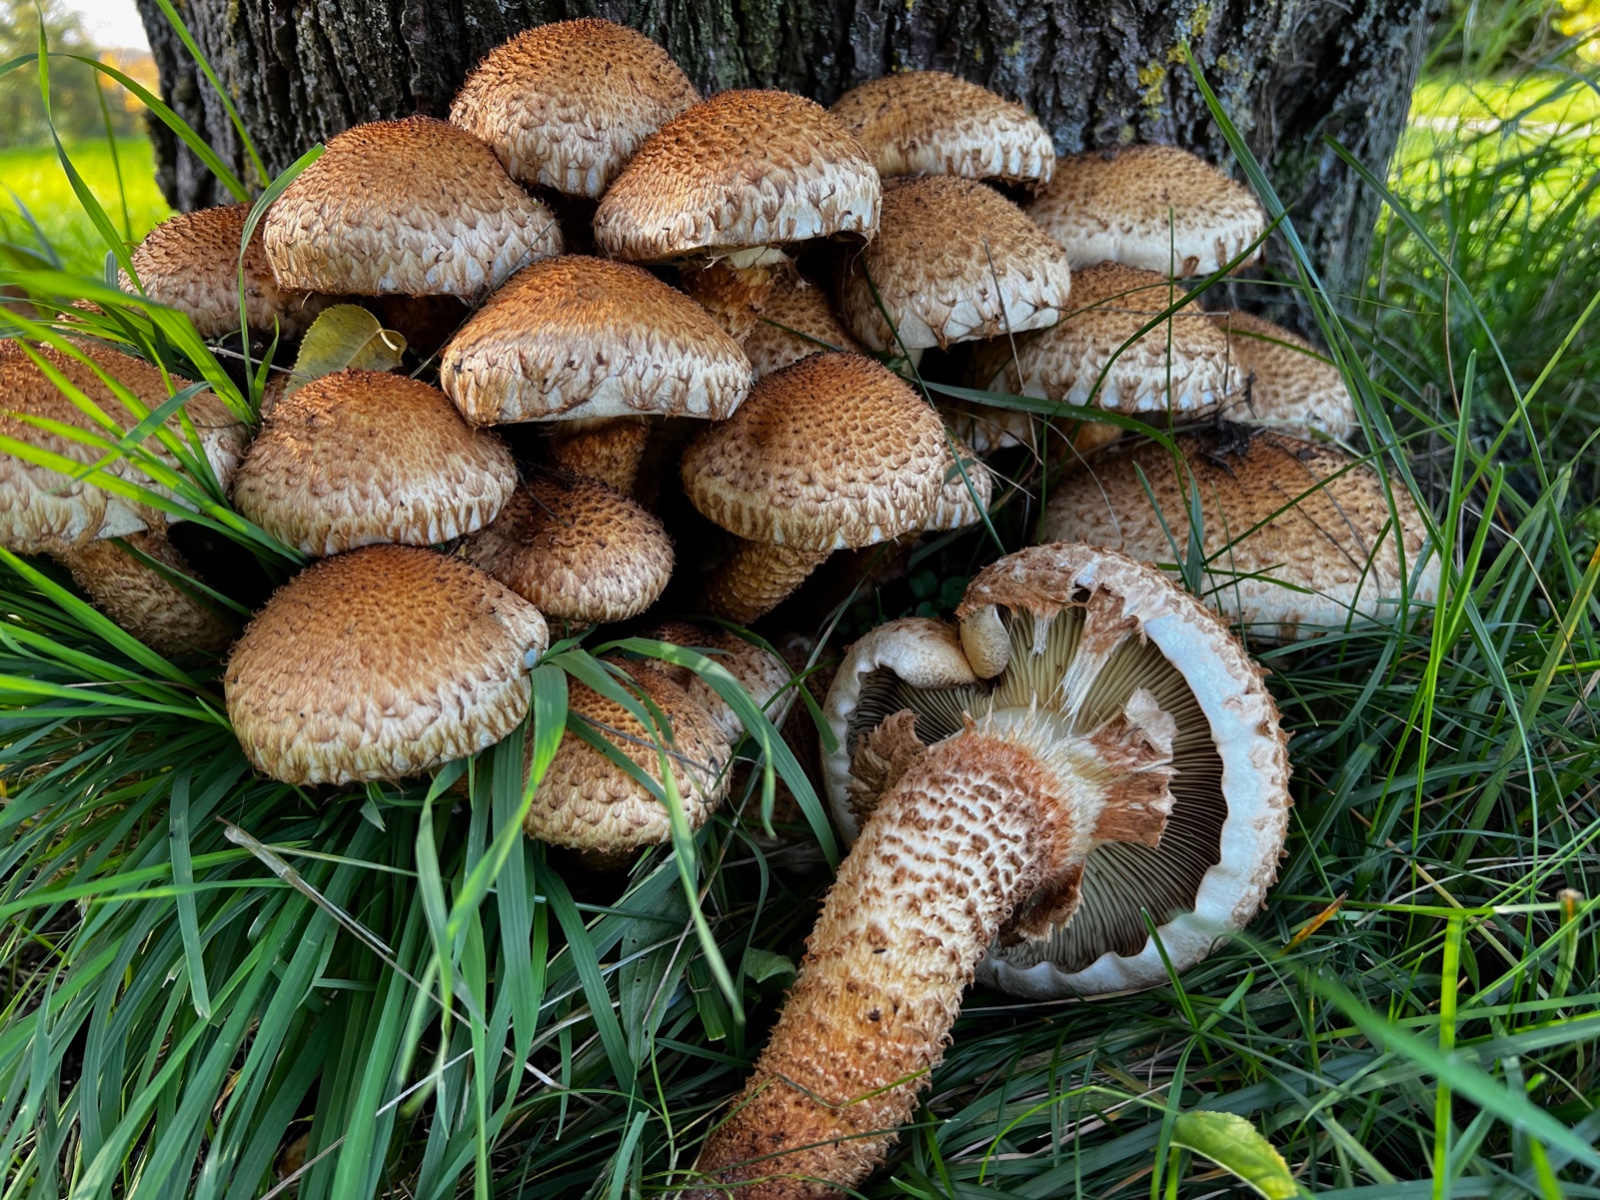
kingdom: Fungi
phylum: Basidiomycota
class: Agaricomycetes
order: Agaricales
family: Strophariaceae
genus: Pholiota
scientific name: Pholiota squarrosa
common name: krumskællet skælhat
